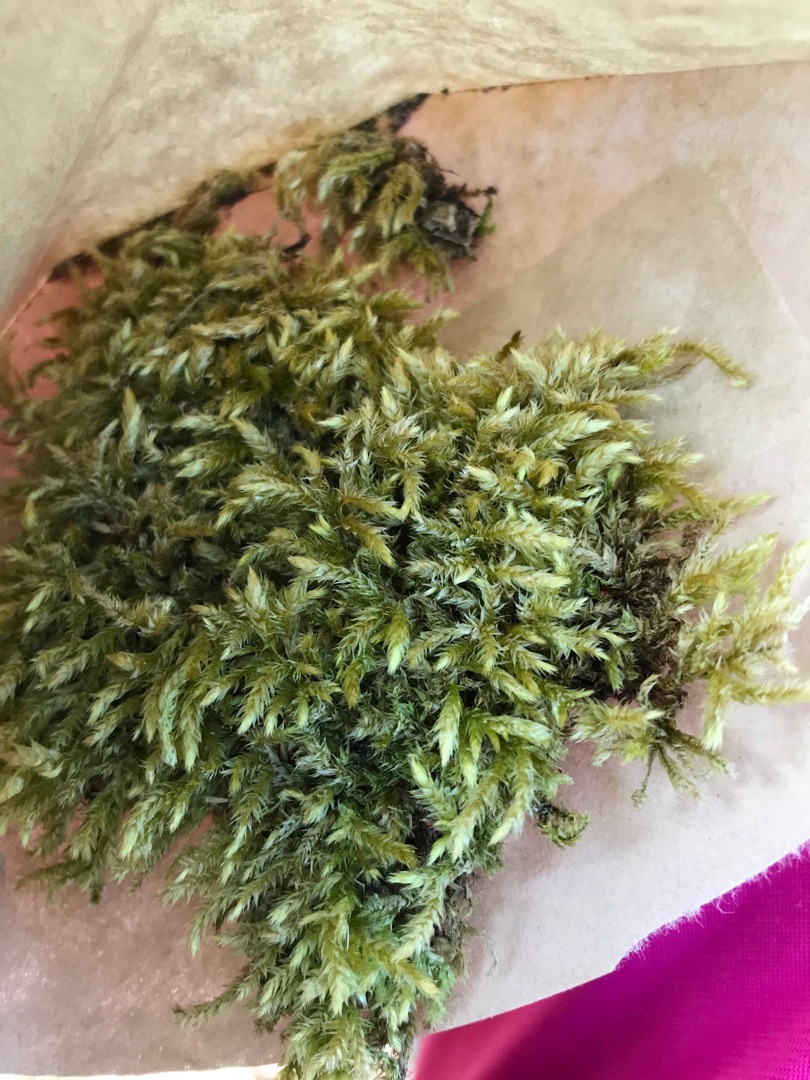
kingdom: Plantae
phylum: Bryophyta
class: Bryopsida
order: Hypnales
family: Brachytheciaceae
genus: Brachythecium
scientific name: Brachythecium rutabulum
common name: Almindelig kortkapsel
